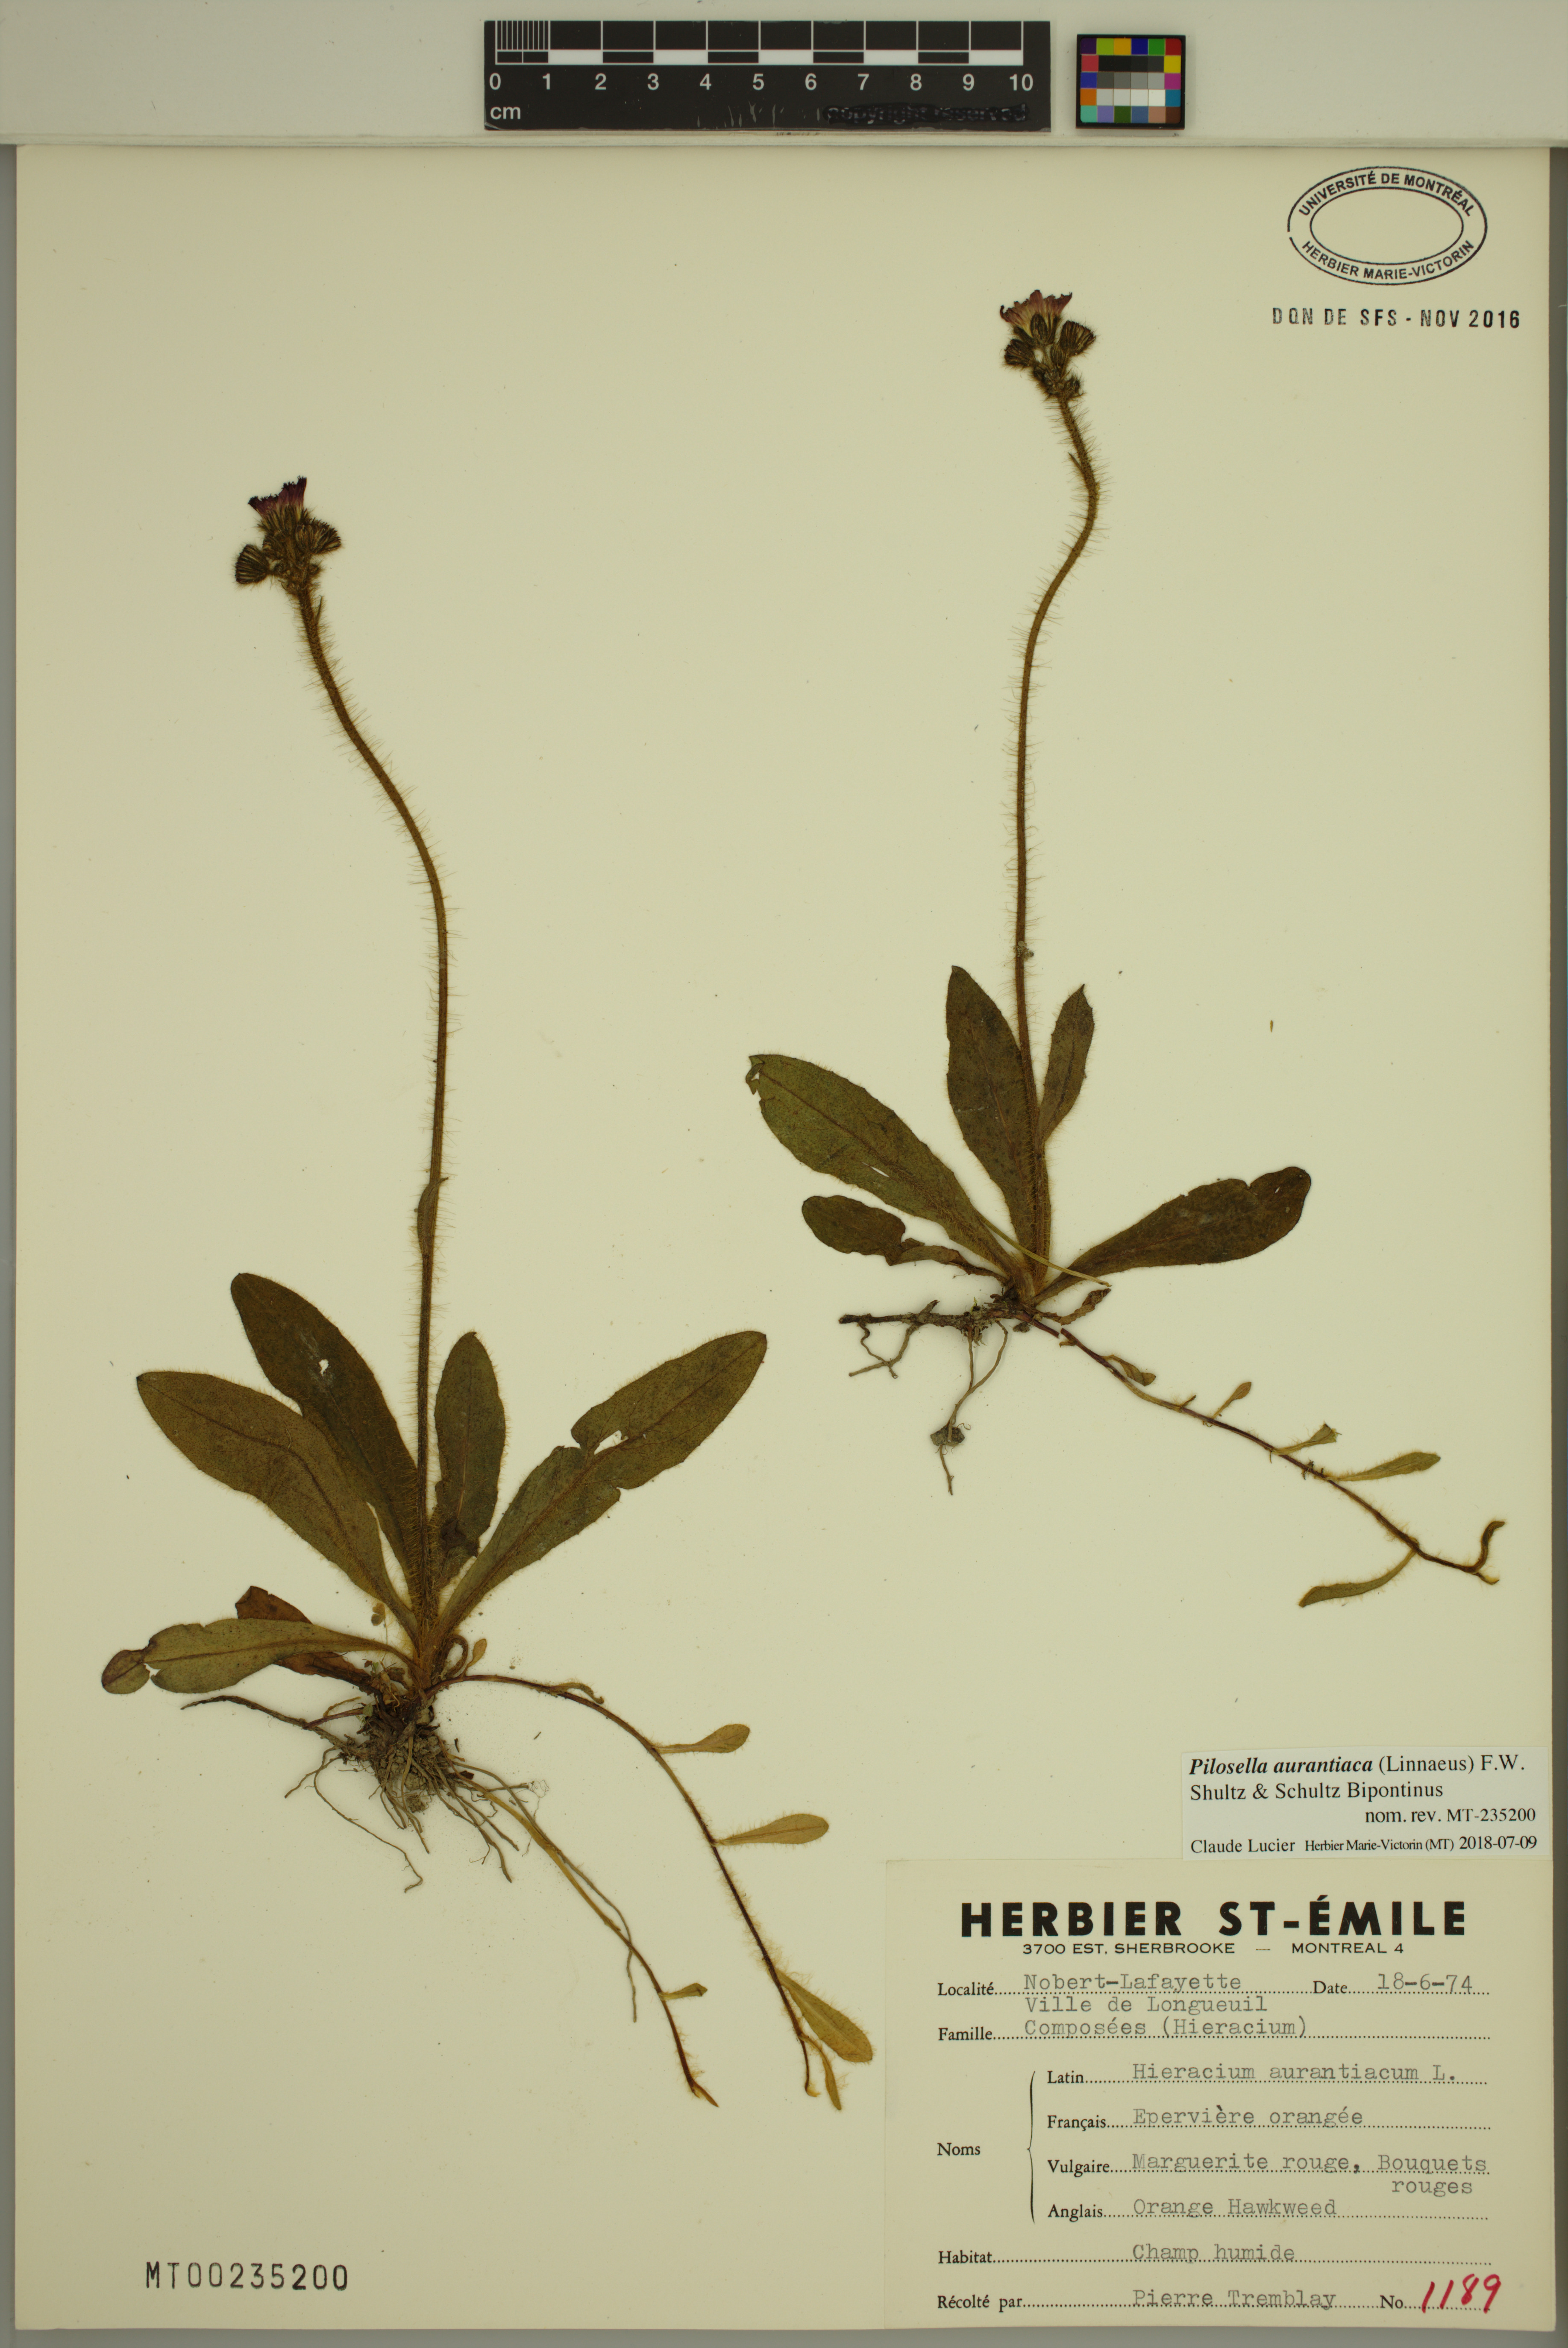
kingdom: Plantae
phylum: Tracheophyta
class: Magnoliopsida
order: Asterales
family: Asteraceae
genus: Pilosella
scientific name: Pilosella aurantiaca
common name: Fox-and-cubs
